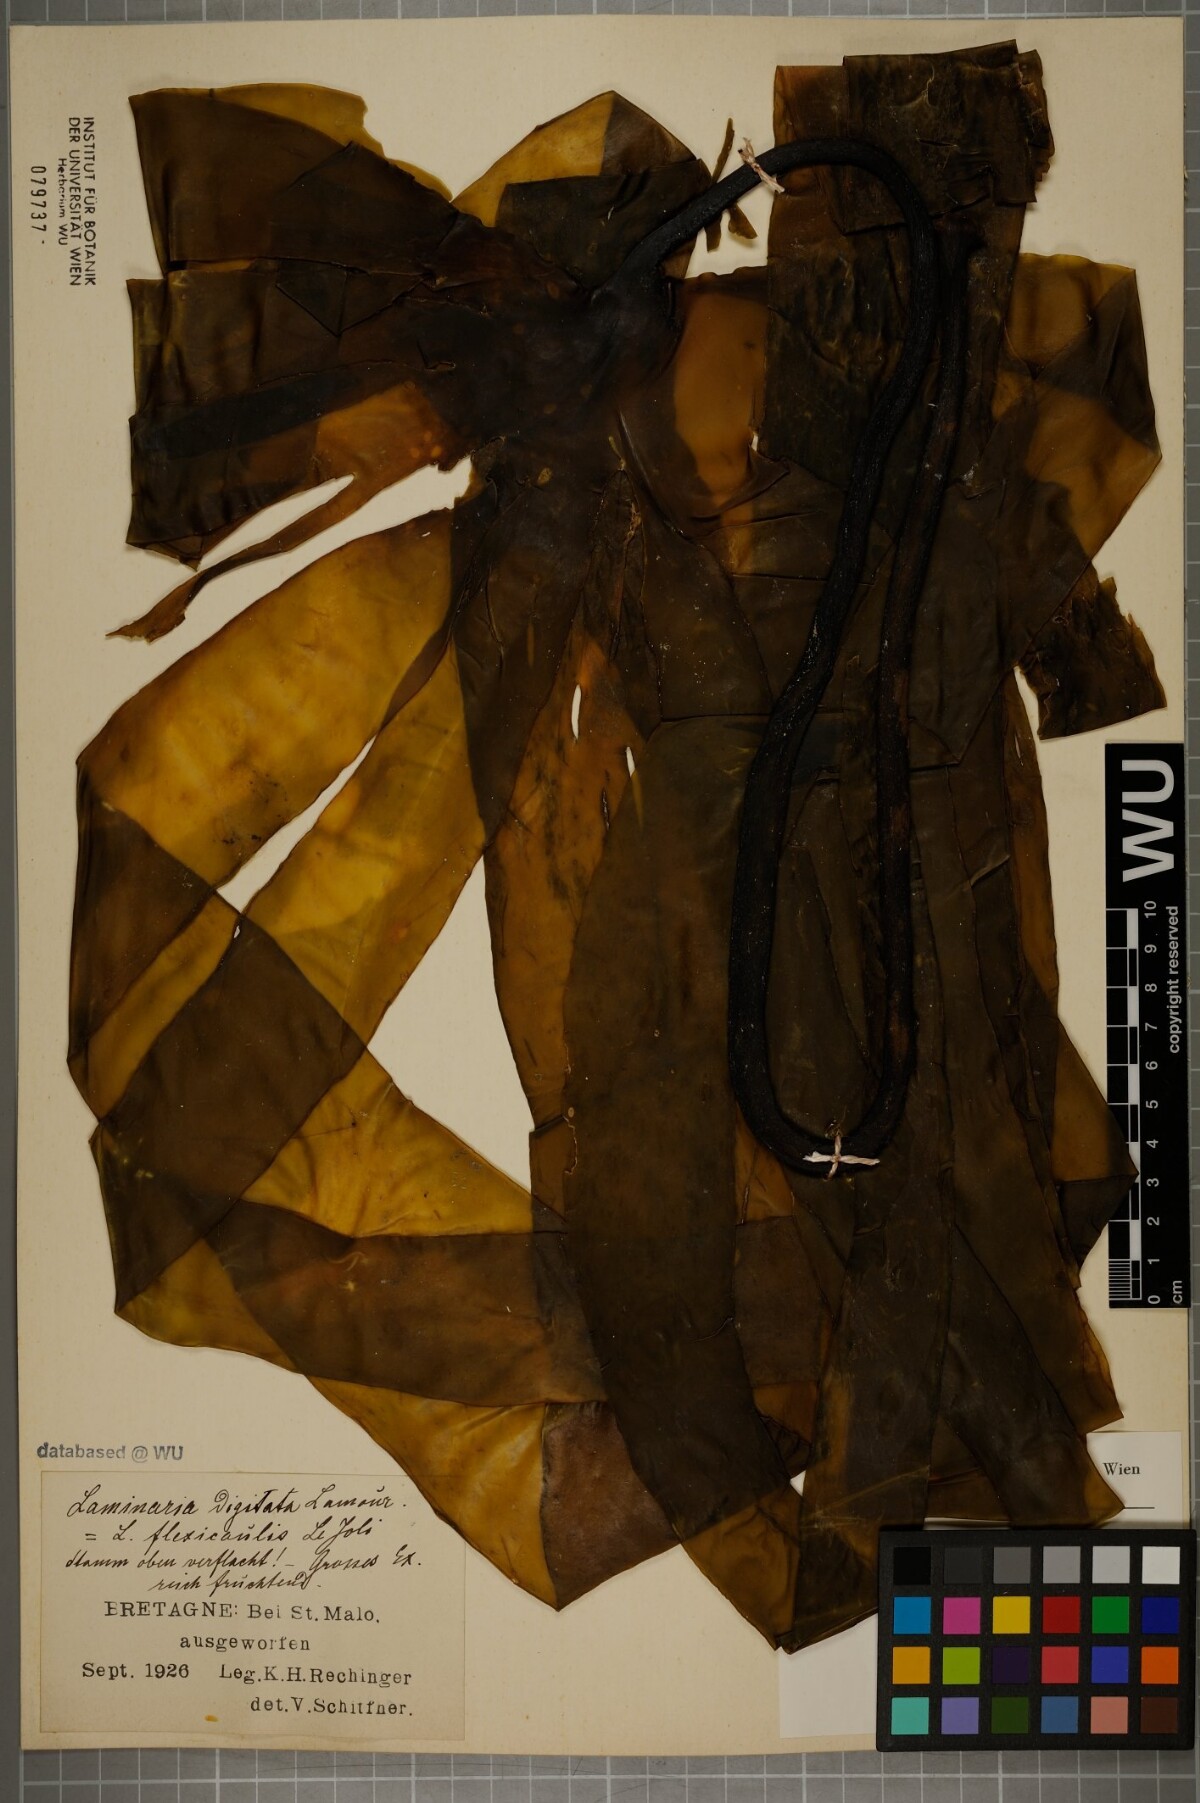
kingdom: Chromista
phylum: Ochrophyta
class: Phaeophyceae
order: Laminariales
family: Laminariaceae
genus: Laminaria
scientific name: Laminaria digitata
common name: Oarweed
